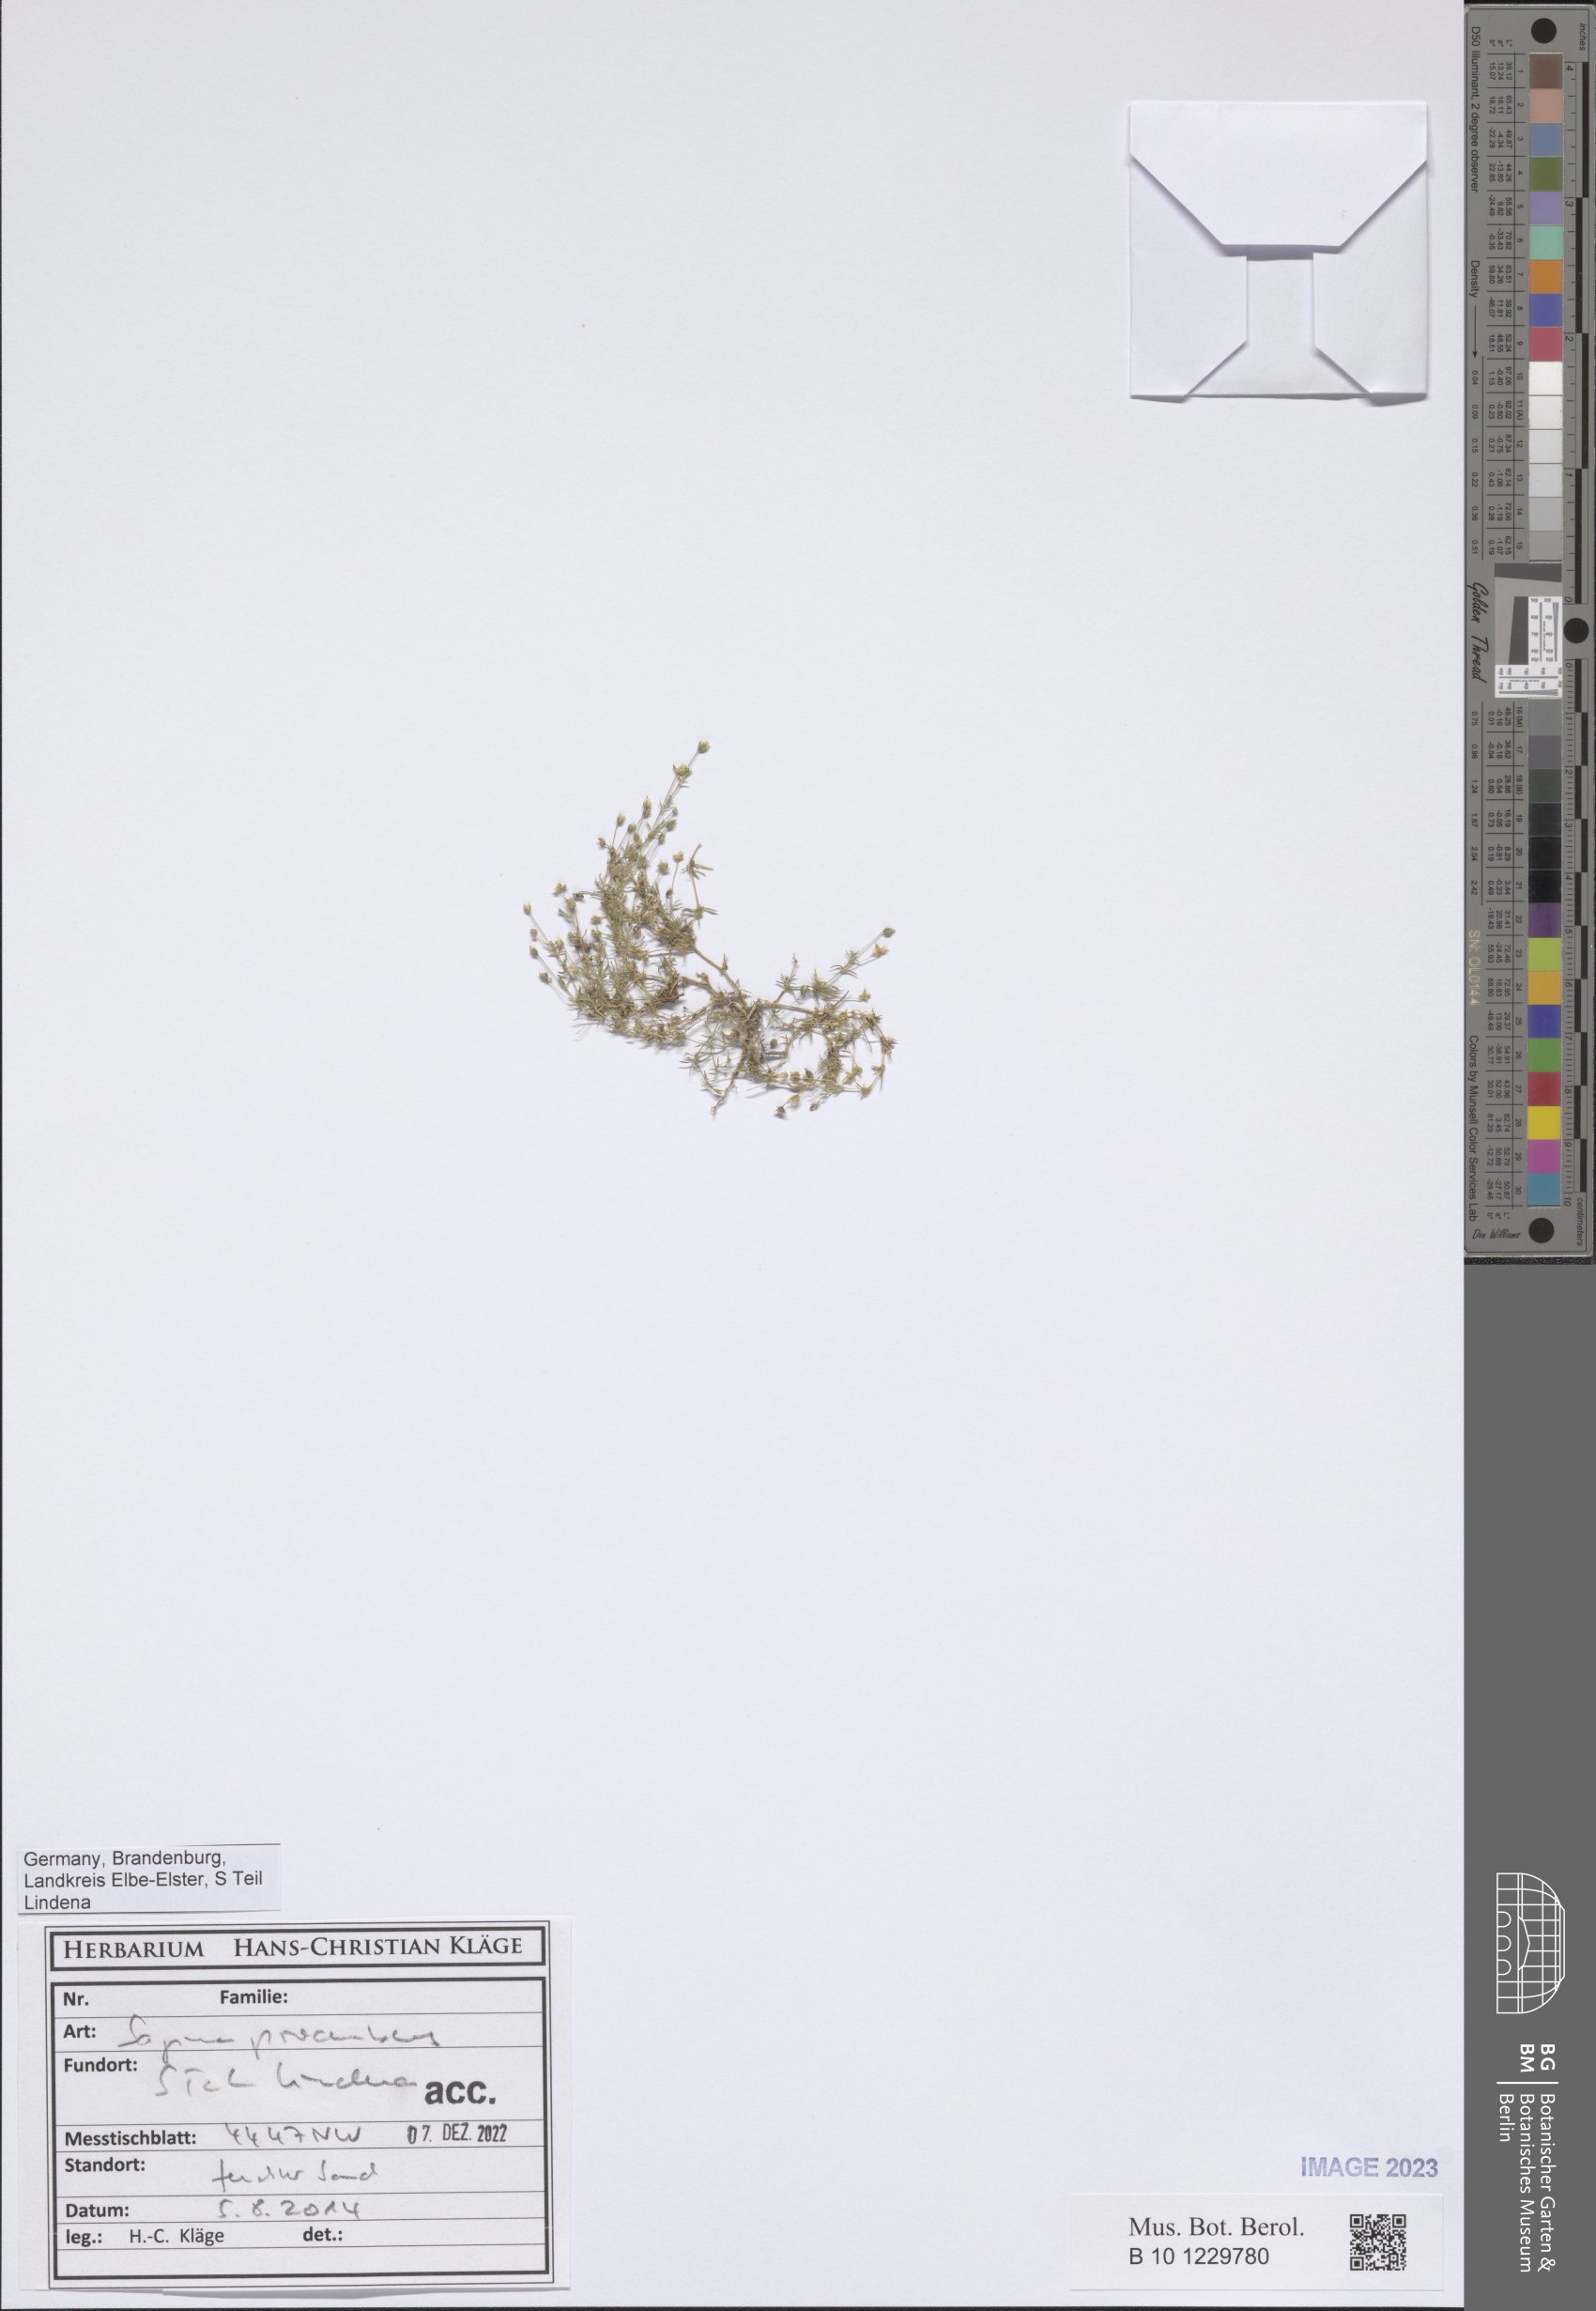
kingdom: Plantae
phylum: Tracheophyta
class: Magnoliopsida
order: Caryophyllales
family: Caryophyllaceae
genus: Sagina
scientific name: Sagina procumbens
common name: Procumbent pearlwort
